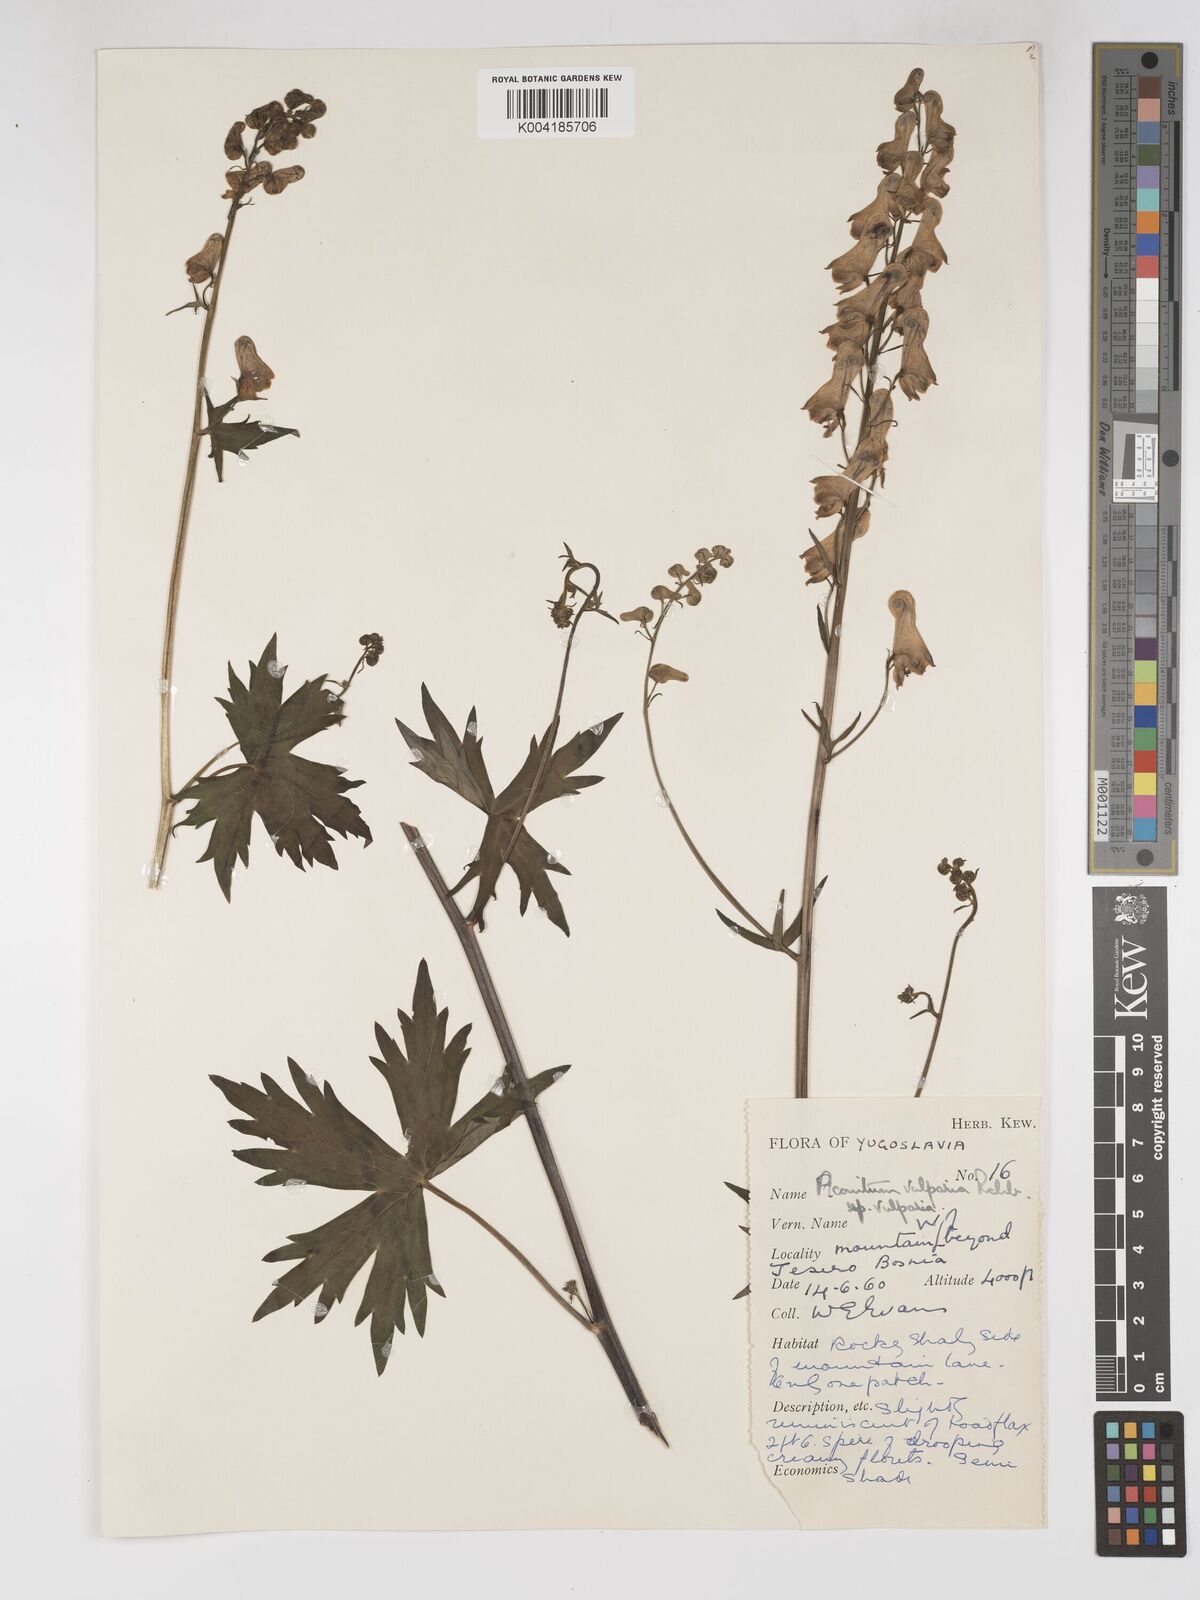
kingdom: Plantae
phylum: Tracheophyta
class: Magnoliopsida
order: Ranunculales
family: Ranunculaceae
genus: Aconitum
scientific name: Aconitum lycoctonum
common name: Wolf's-bane
